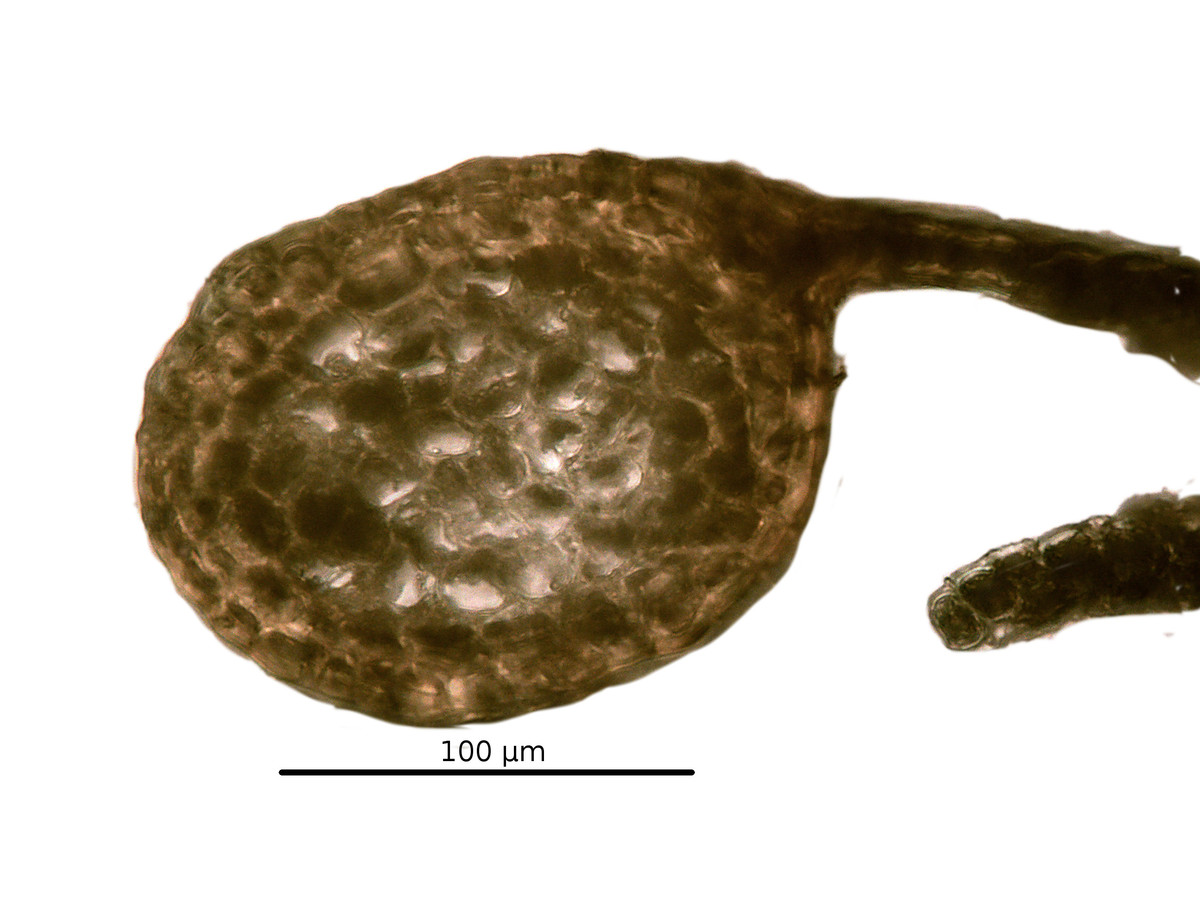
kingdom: Plantae
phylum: Marchantiophyta
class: Jungermanniopsida
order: Porellales
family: Radulaceae
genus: Radula
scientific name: Radula boryana
